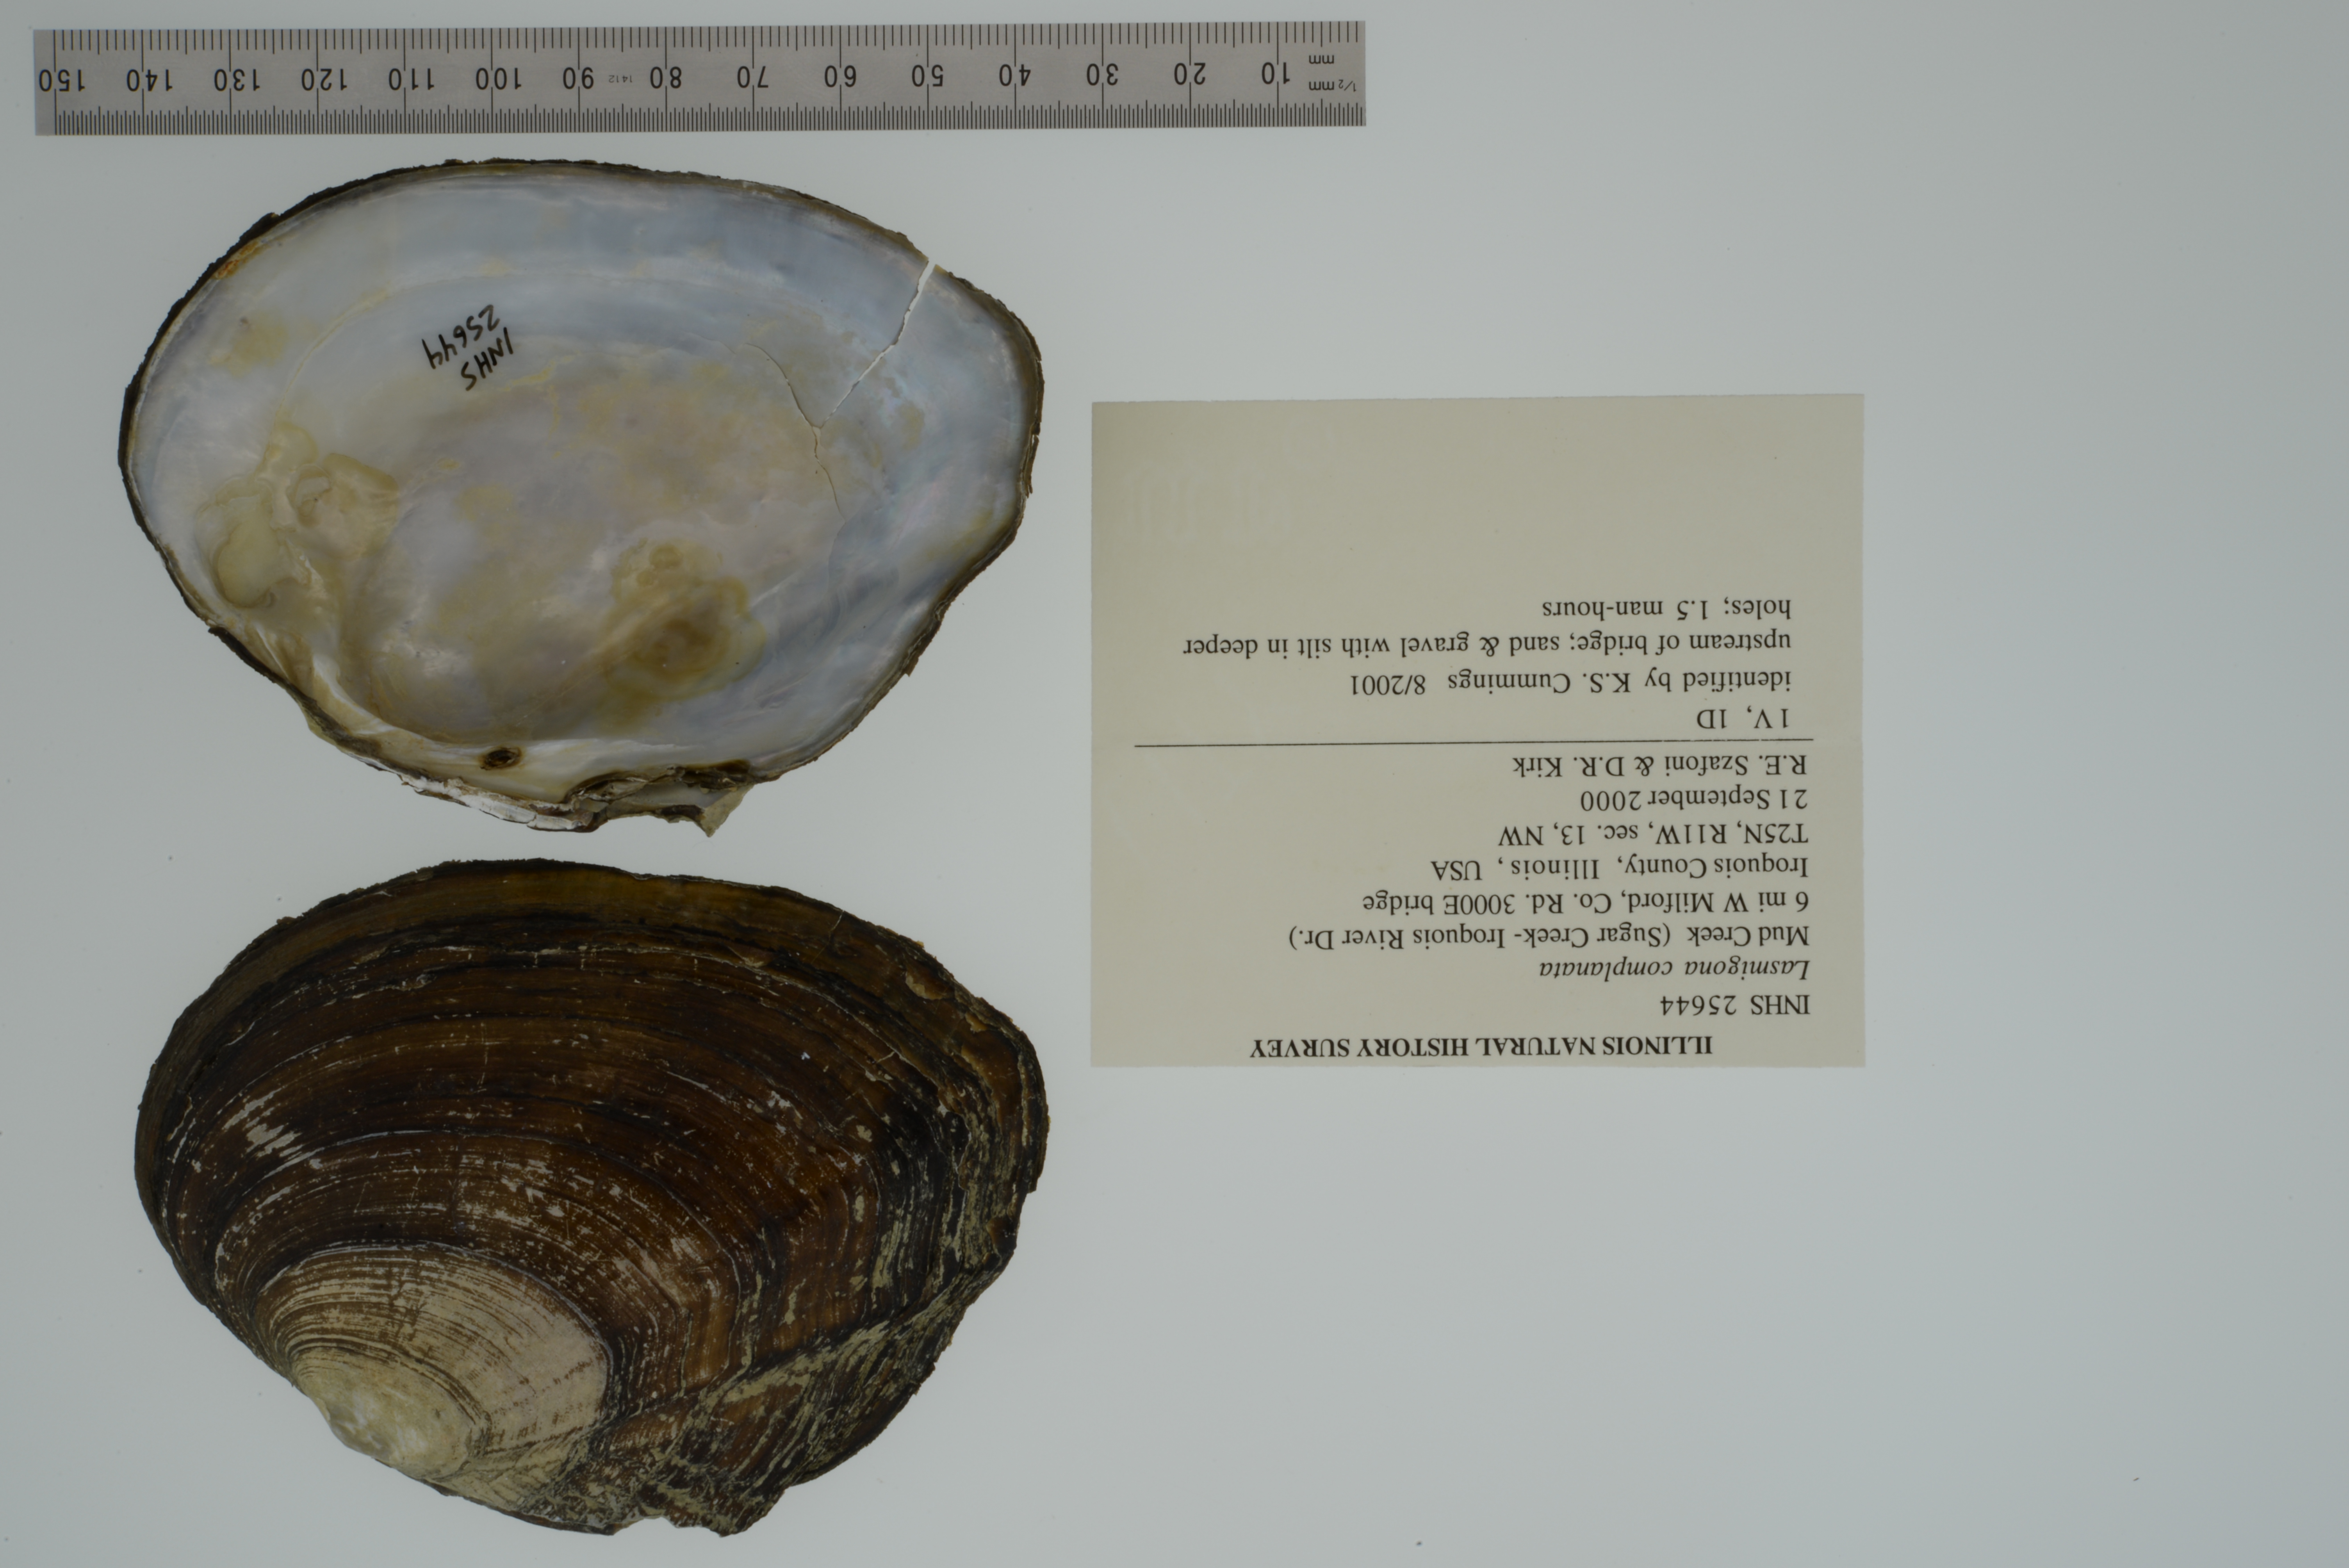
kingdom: Animalia
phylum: Mollusca
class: Bivalvia
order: Unionida
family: Unionidae
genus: Lasmigona
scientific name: Lasmigona complanata
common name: White heelsplitter
